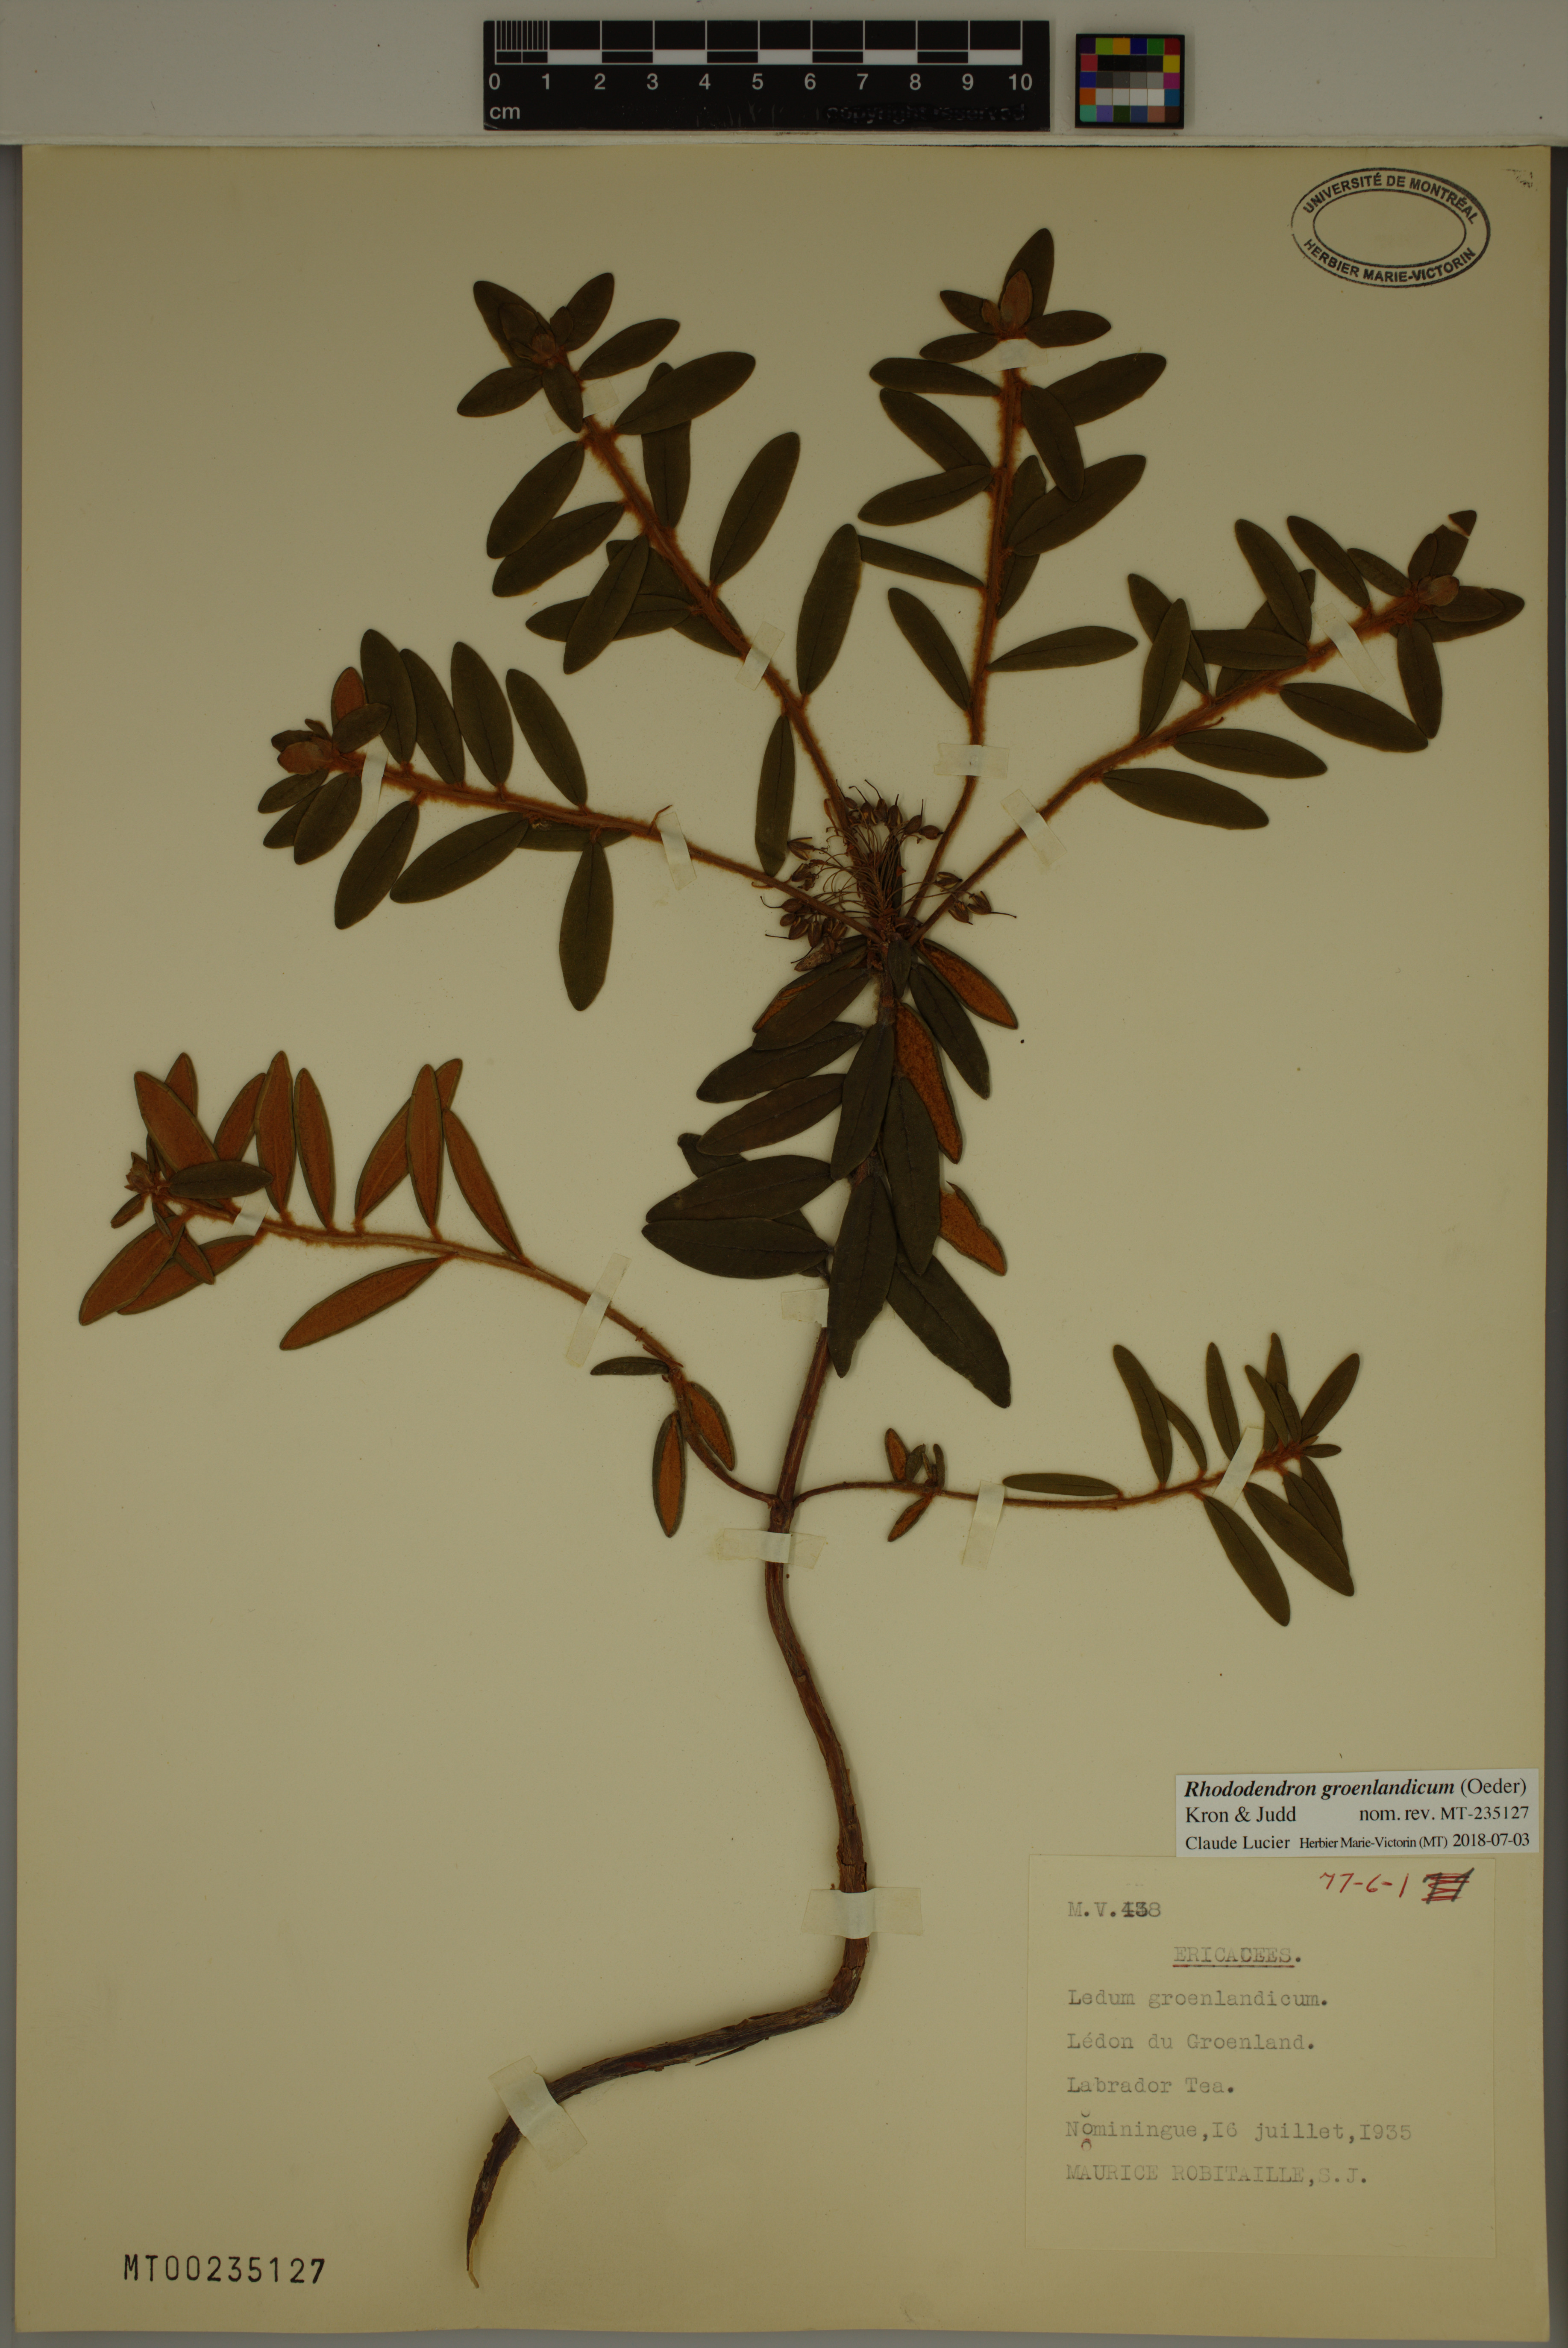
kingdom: Plantae
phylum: Tracheophyta
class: Magnoliopsida
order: Ericales
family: Ericaceae
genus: Rhododendron
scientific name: Rhododendron groenlandicum
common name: Bog labrador tea
